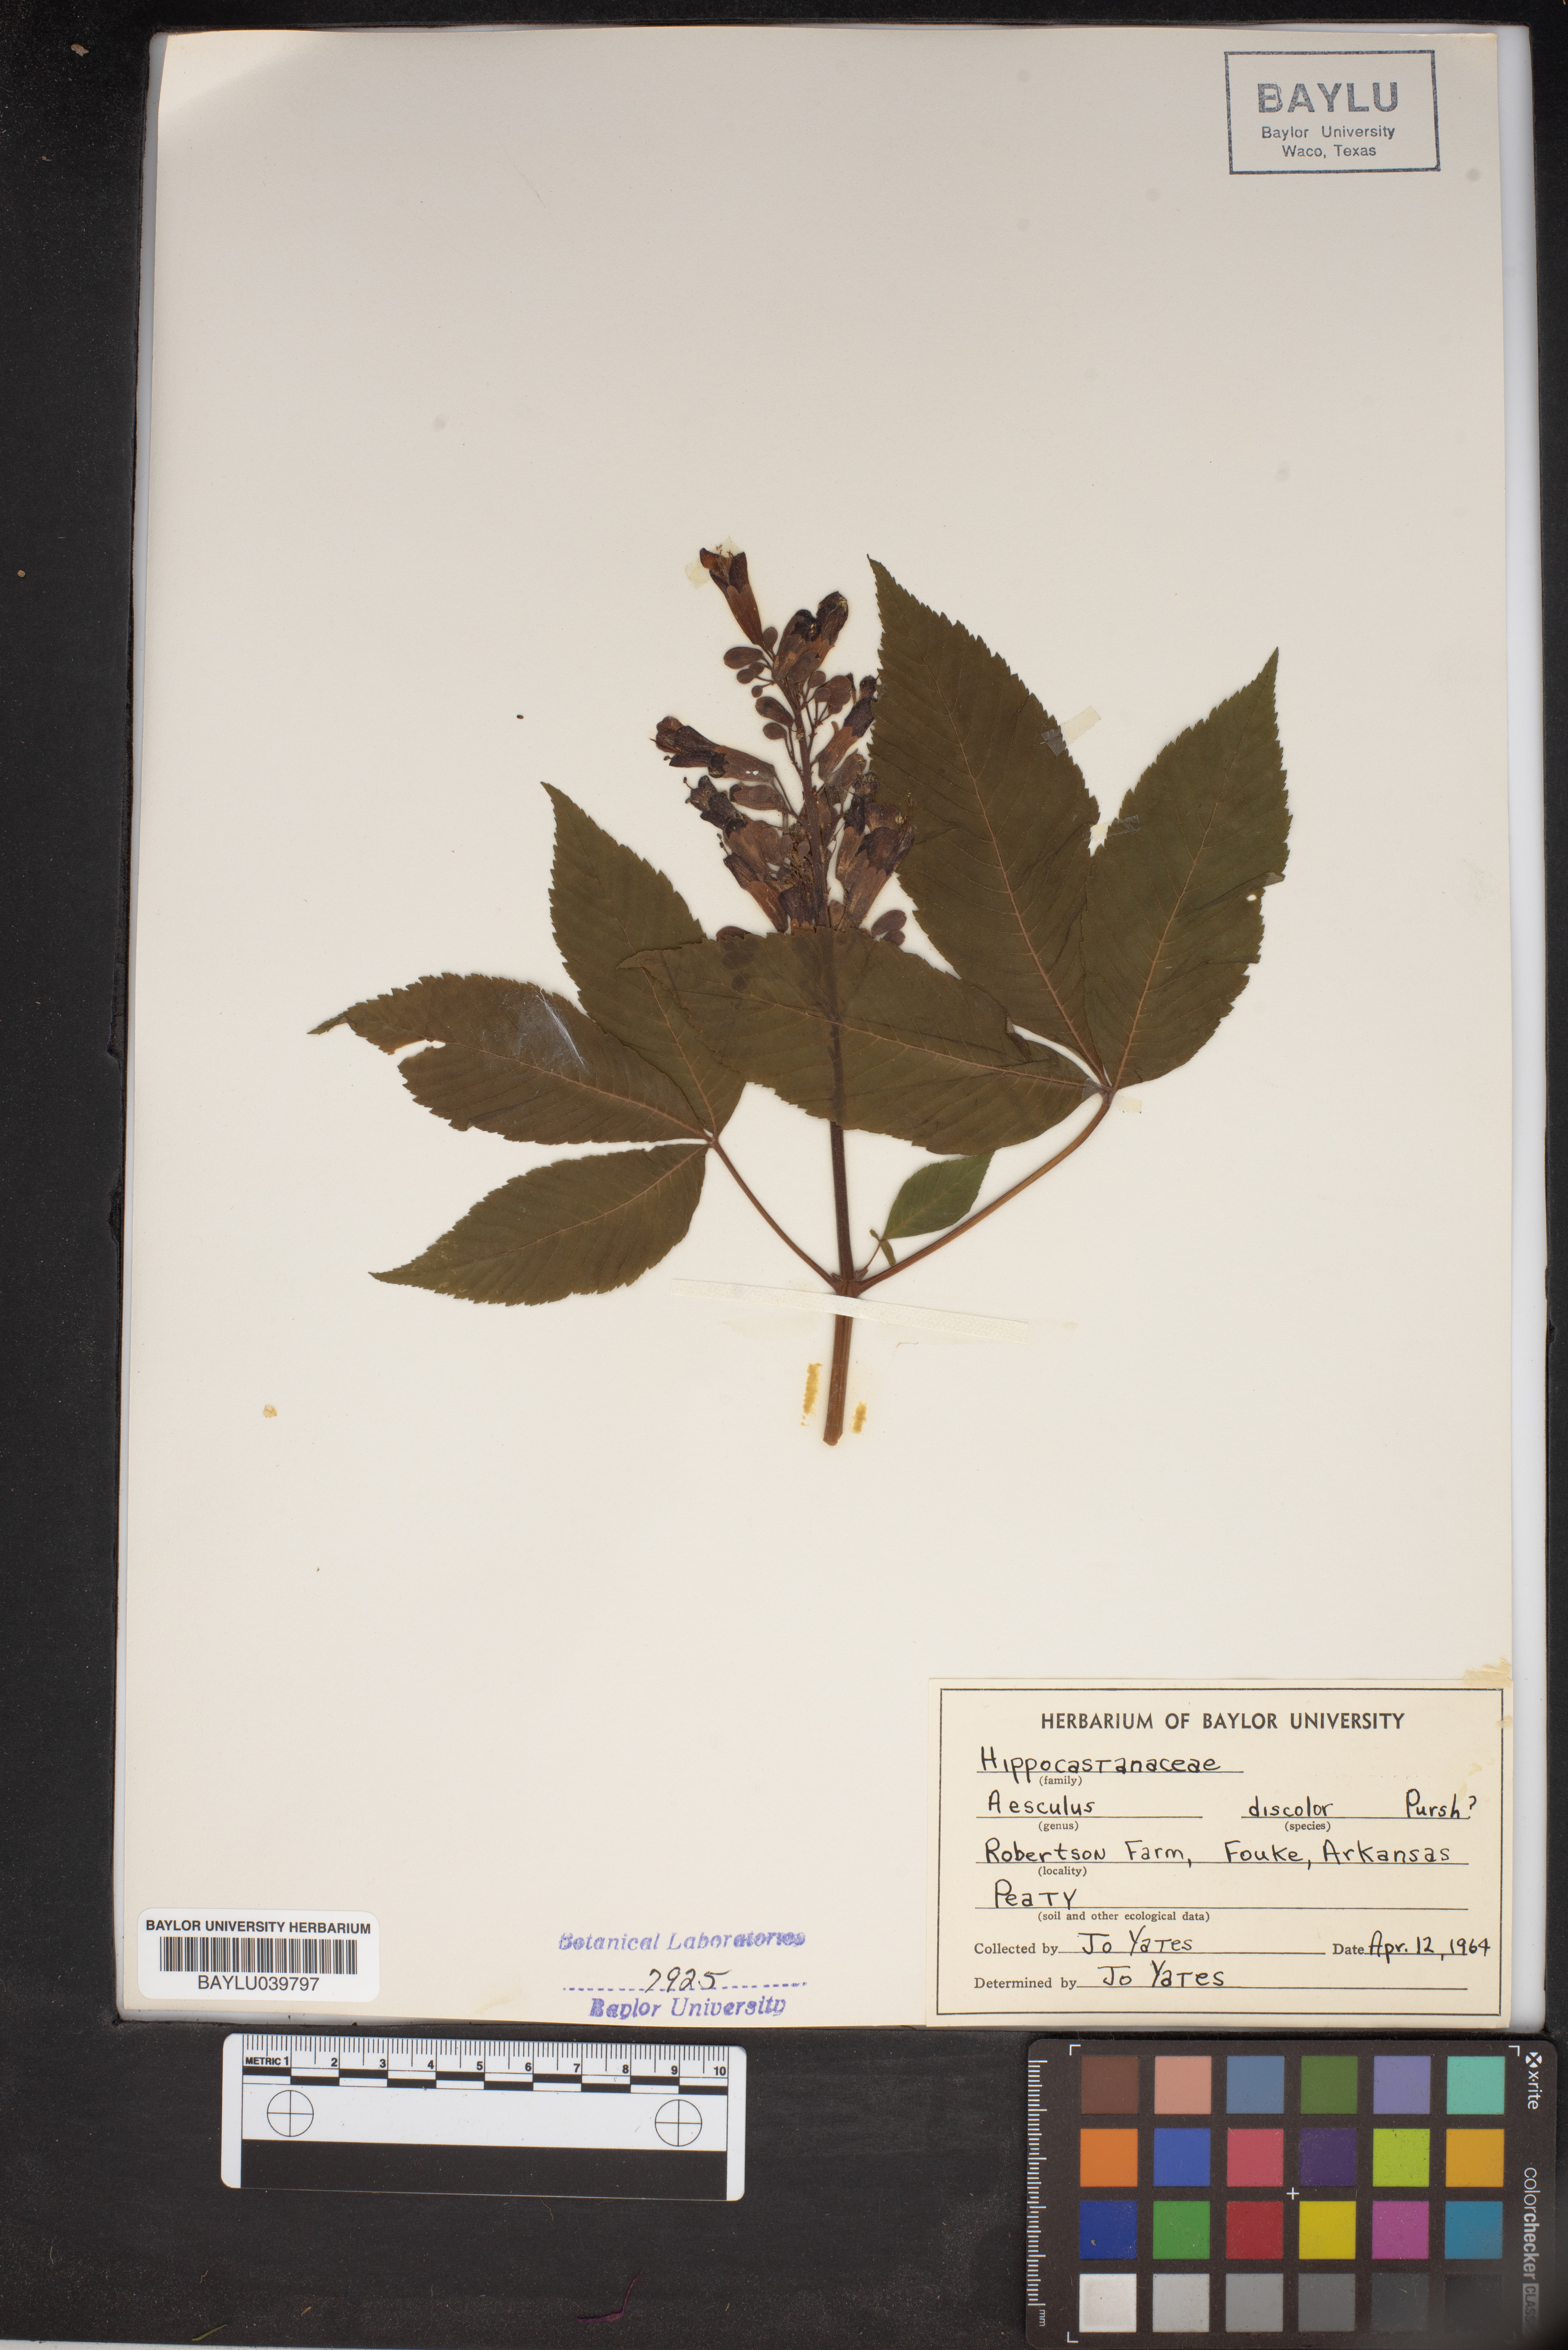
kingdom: Plantae
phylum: Tracheophyta
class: Magnoliopsida
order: Sapindales
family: Sapindaceae
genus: Aesculus
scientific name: Aesculus pavia
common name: Red buckeye
